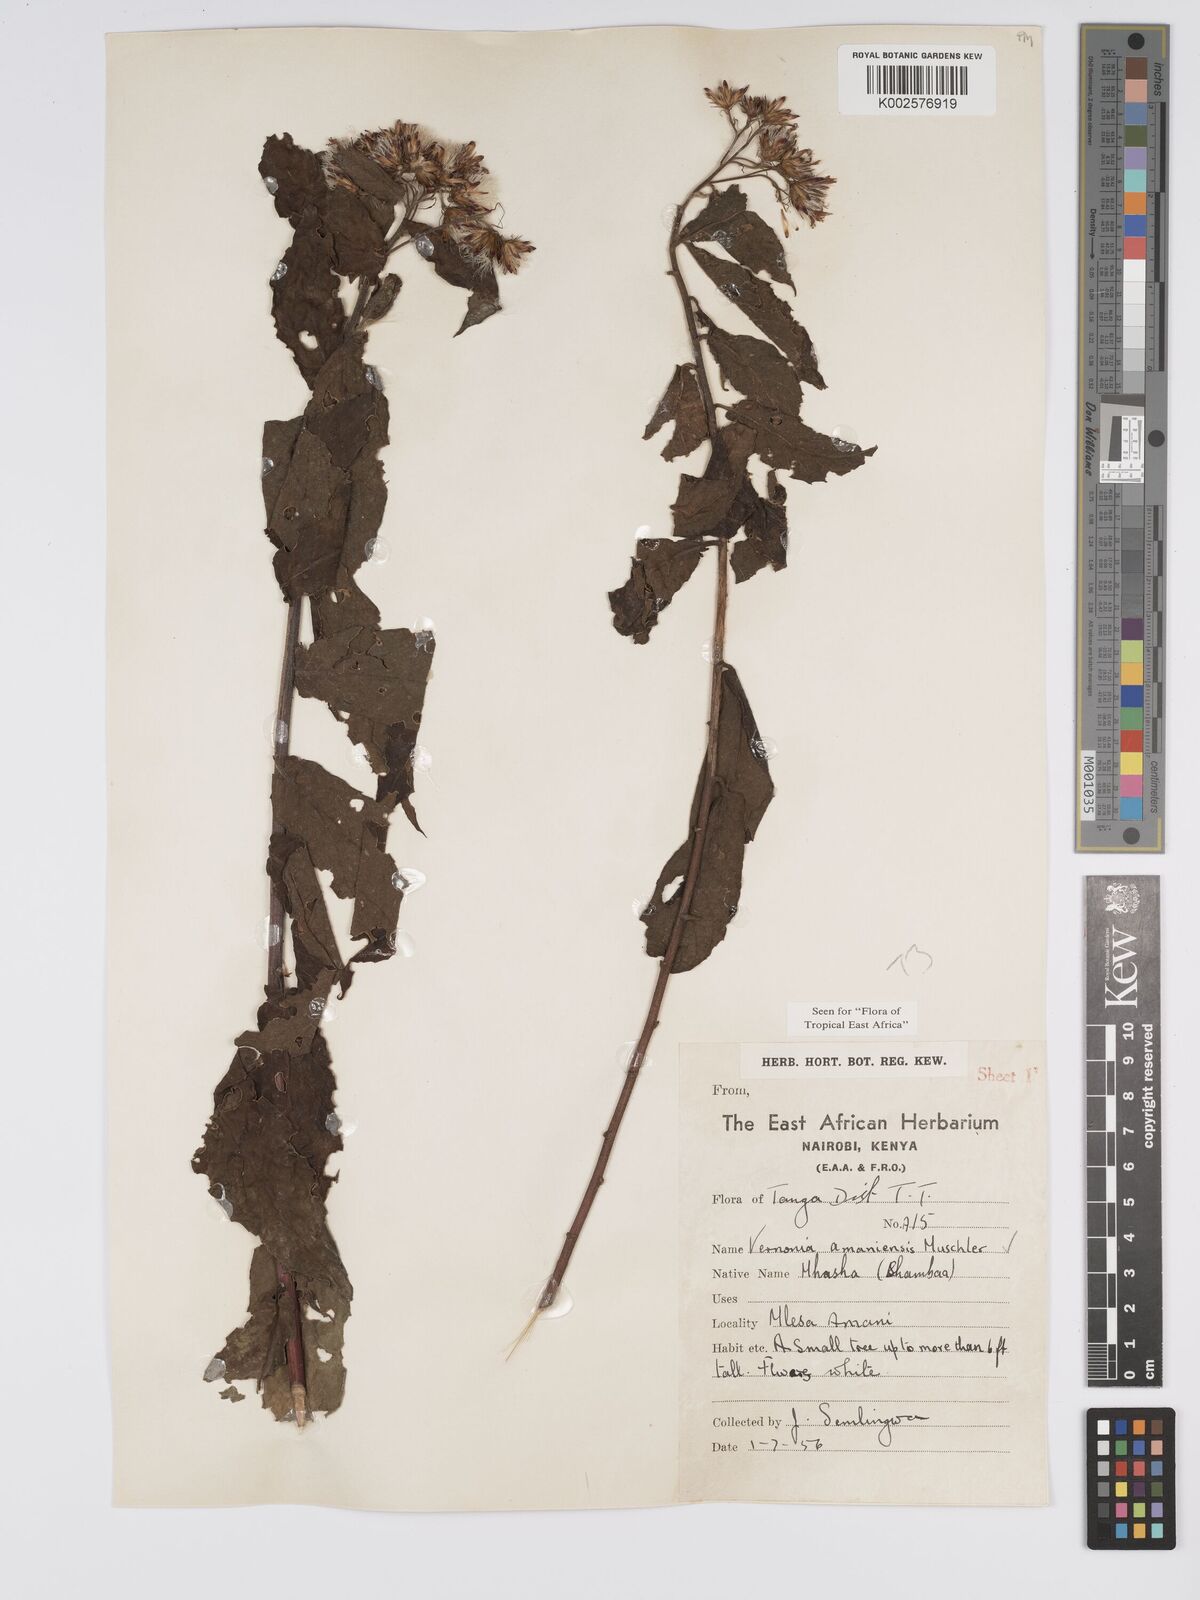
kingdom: Plantae
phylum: Tracheophyta
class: Magnoliopsida
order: Asterales
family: Asteraceae
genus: Jeffreycia
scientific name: Jeffreycia amaniensis
